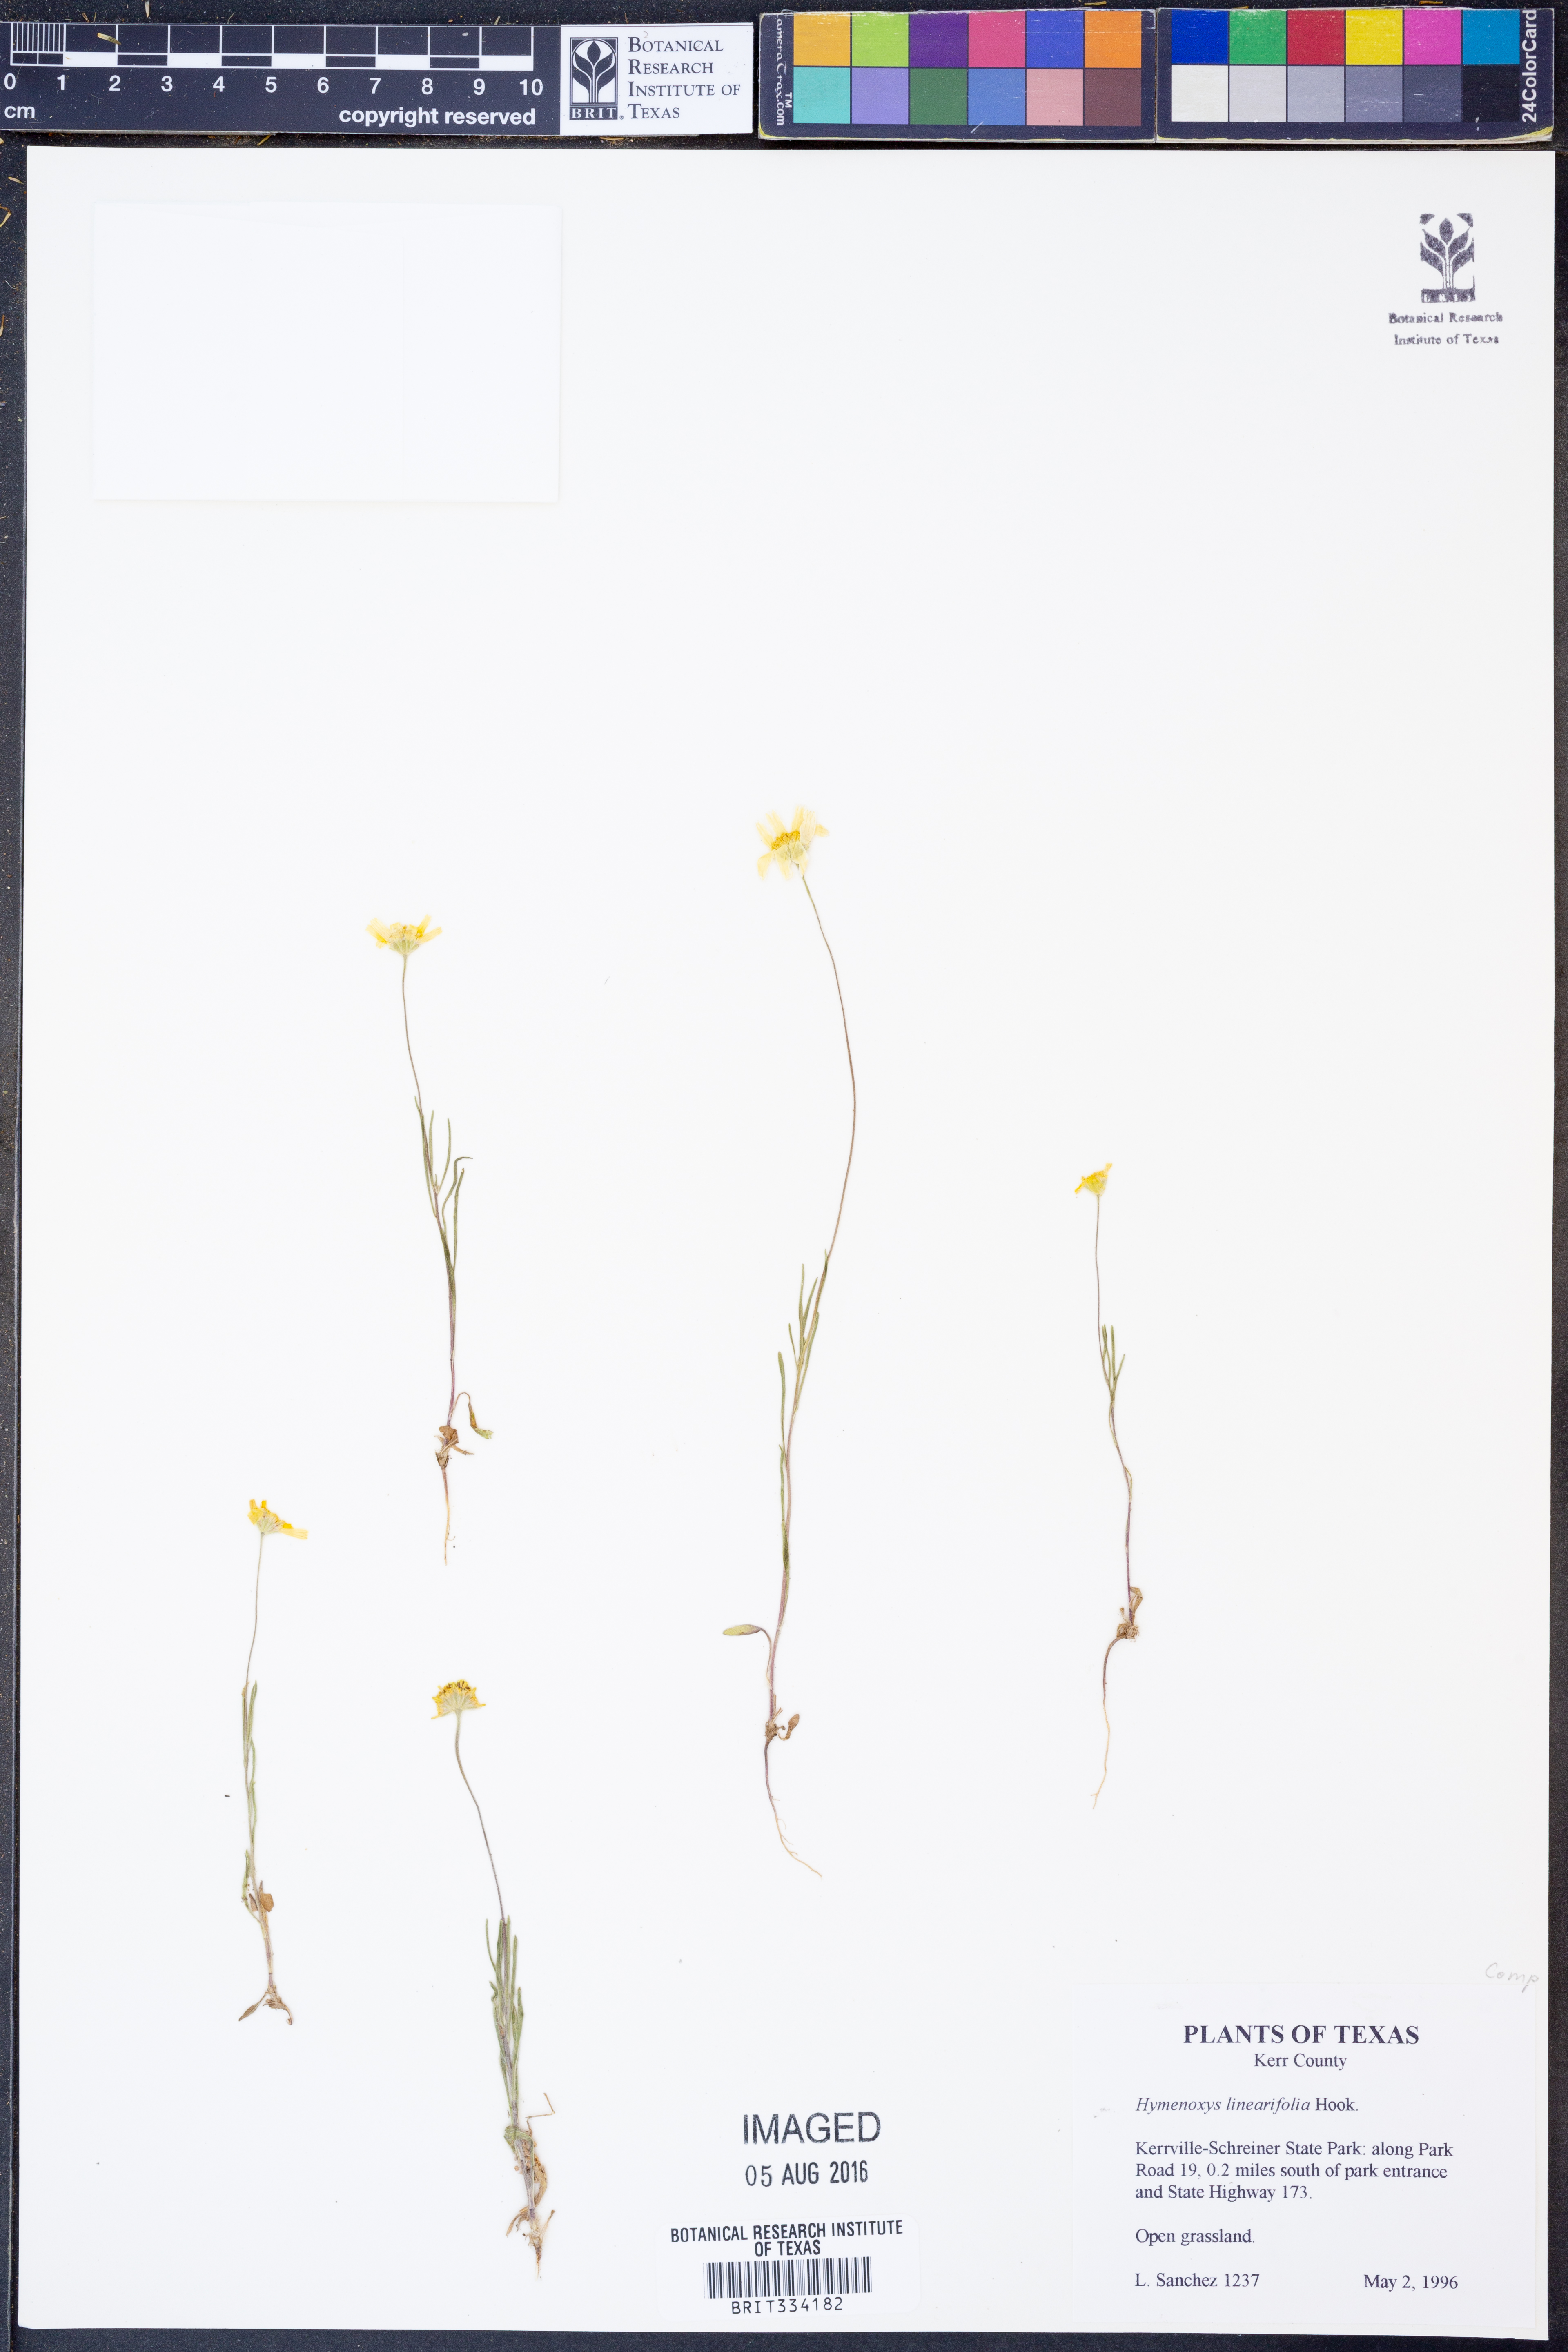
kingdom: Plantae
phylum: Tracheophyta
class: Magnoliopsida
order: Asterales
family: Asteraceae
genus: Tetraneuris
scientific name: Tetraneuris linearifolia
